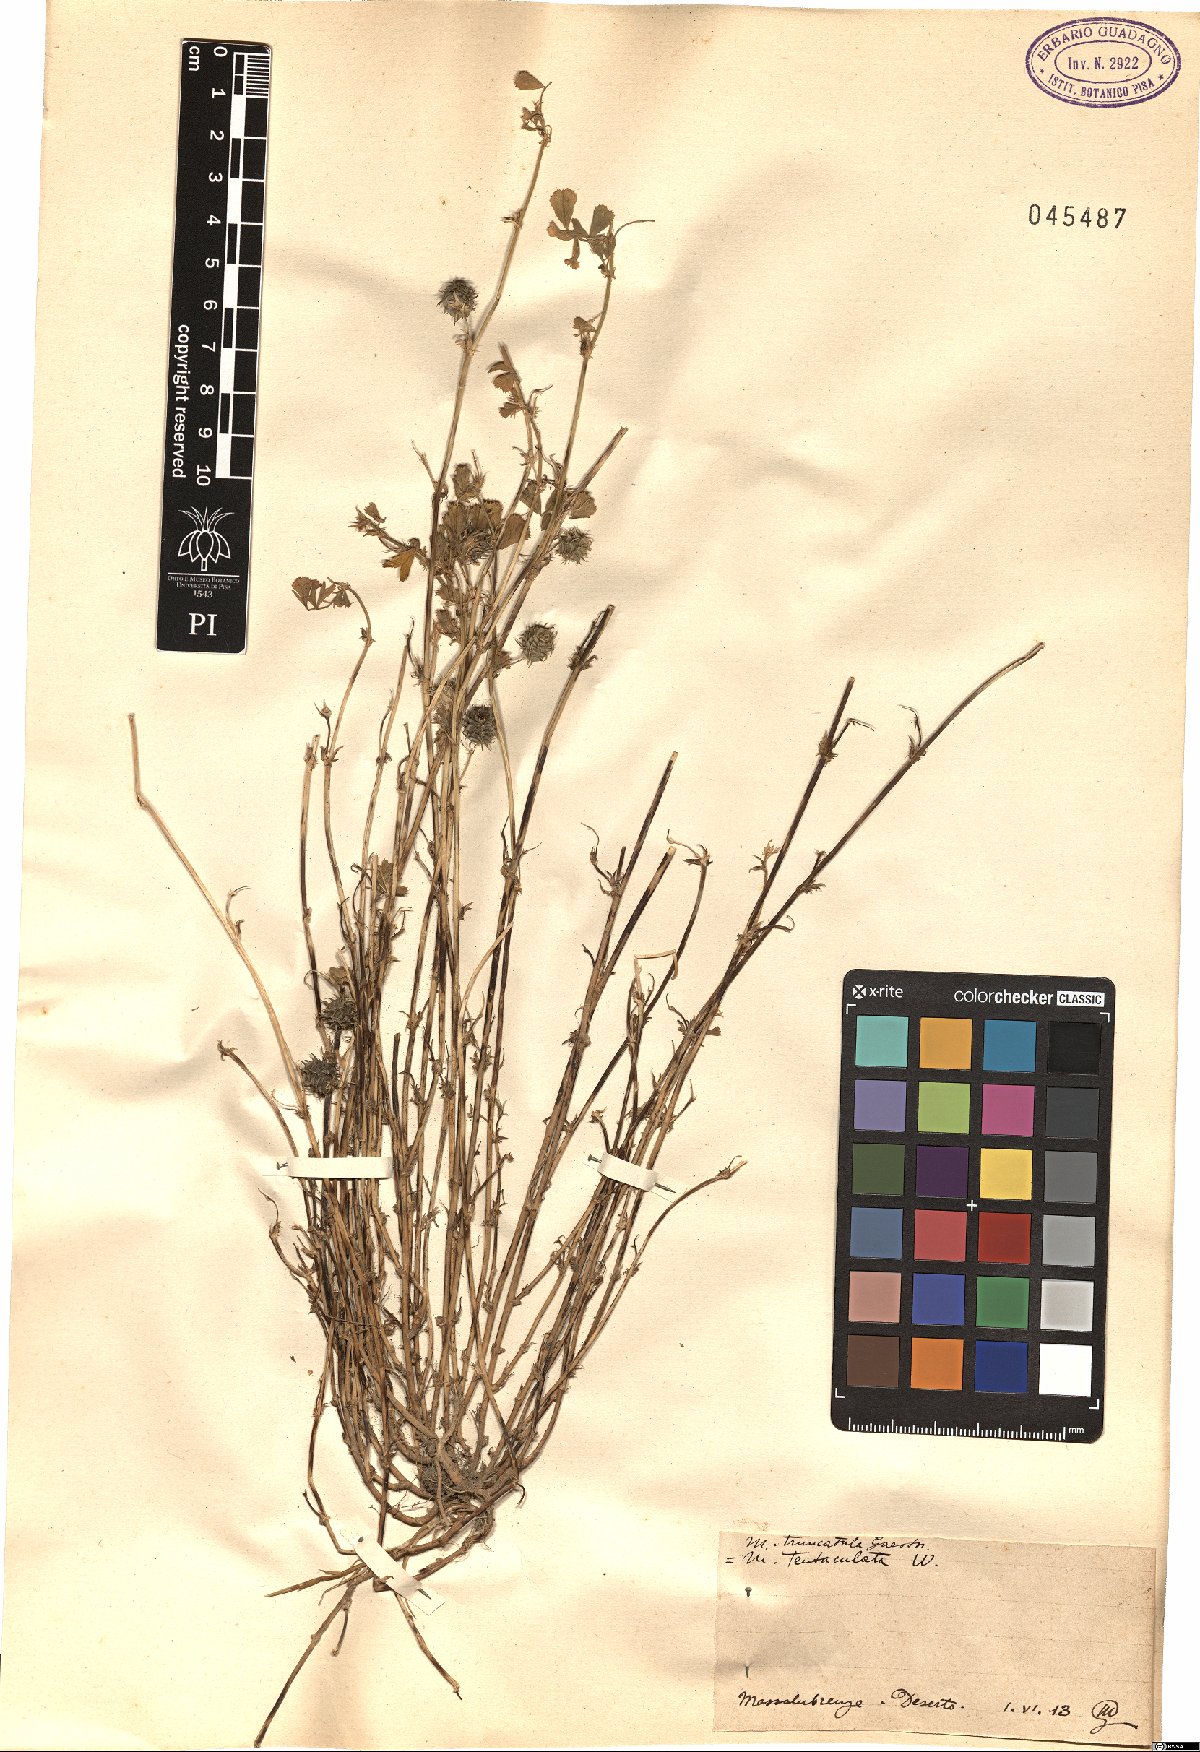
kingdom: Plantae
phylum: Tracheophyta
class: Magnoliopsida
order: Fabales
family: Fabaceae
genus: Medicago
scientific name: Medicago truncatula
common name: Strong-spined medick
